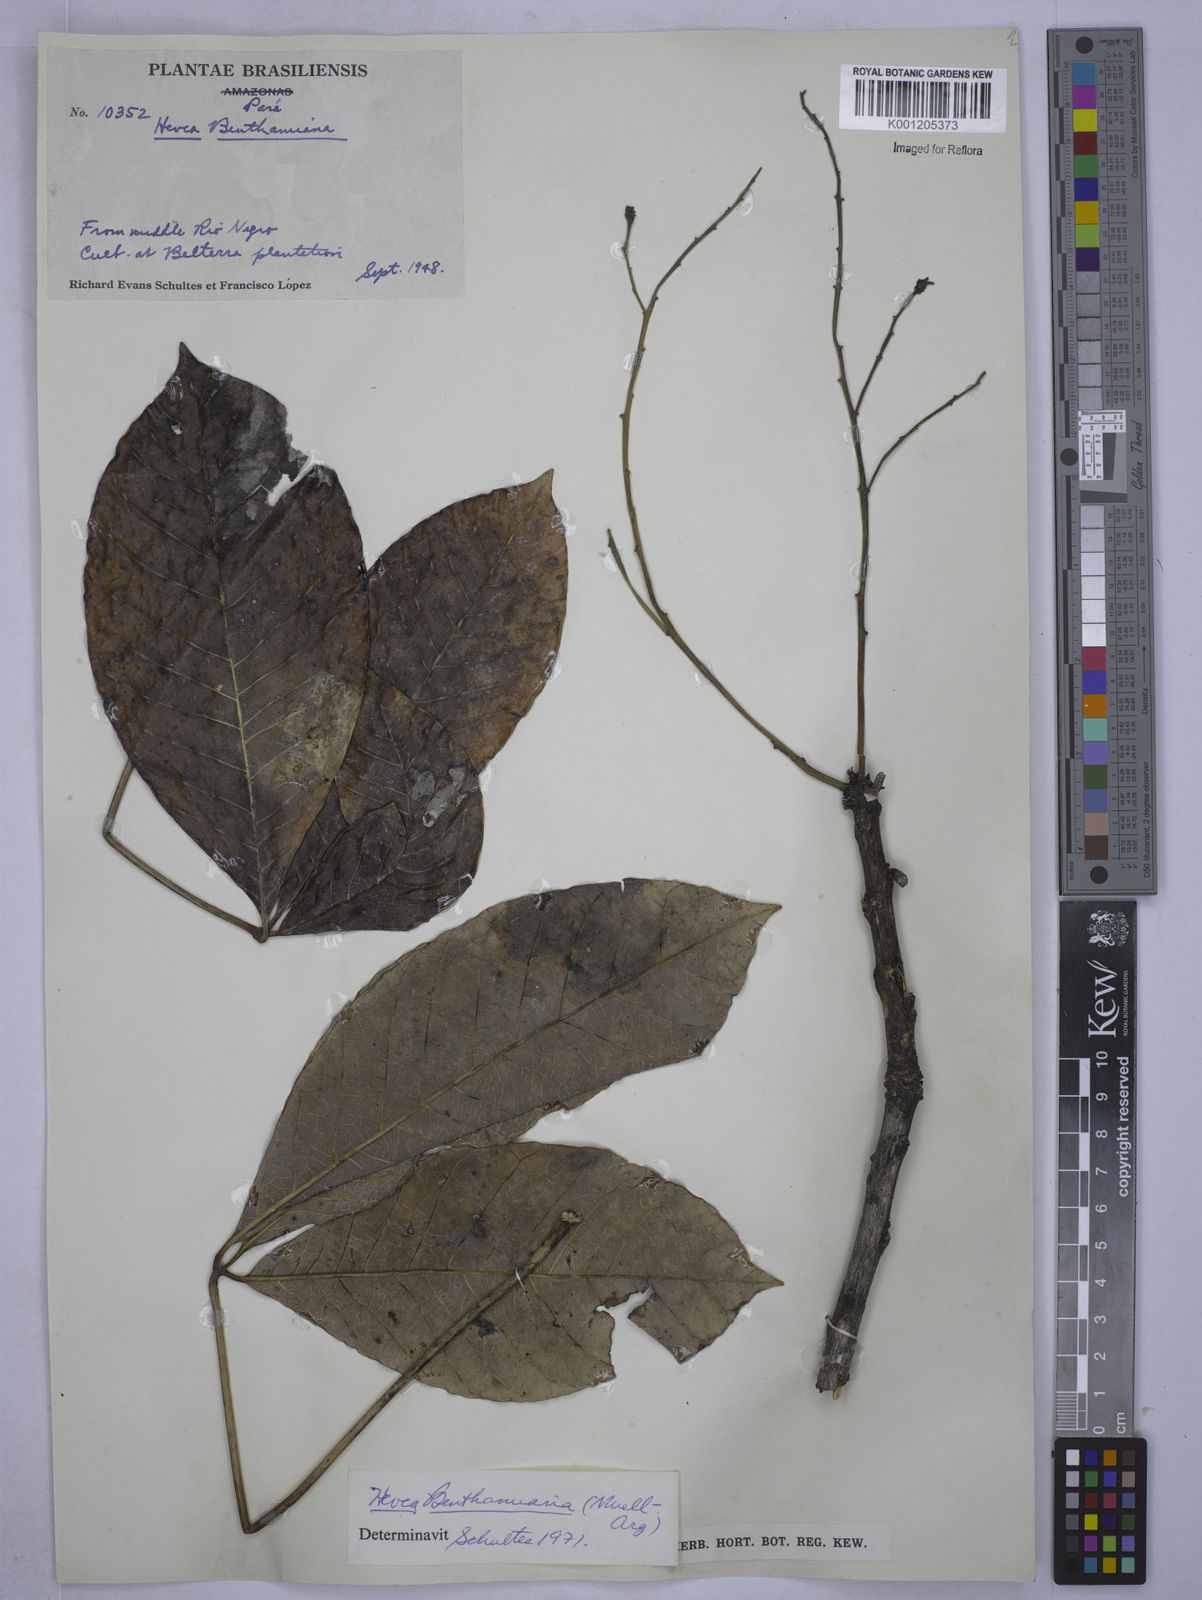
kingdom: Plantae
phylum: Tracheophyta
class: Magnoliopsida
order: Malpighiales
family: Euphorbiaceae
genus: Hevea
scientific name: Hevea
